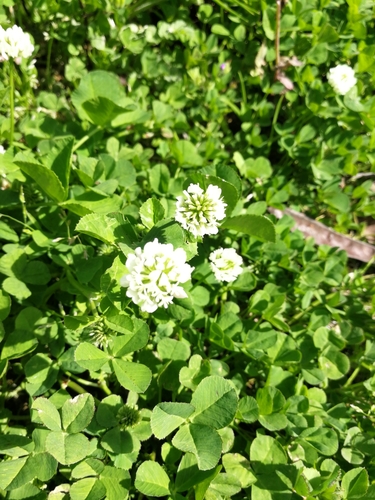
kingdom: Plantae
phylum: Tracheophyta
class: Magnoliopsida
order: Fabales
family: Fabaceae
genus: Trifolium
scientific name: Trifolium repens
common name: White clover
